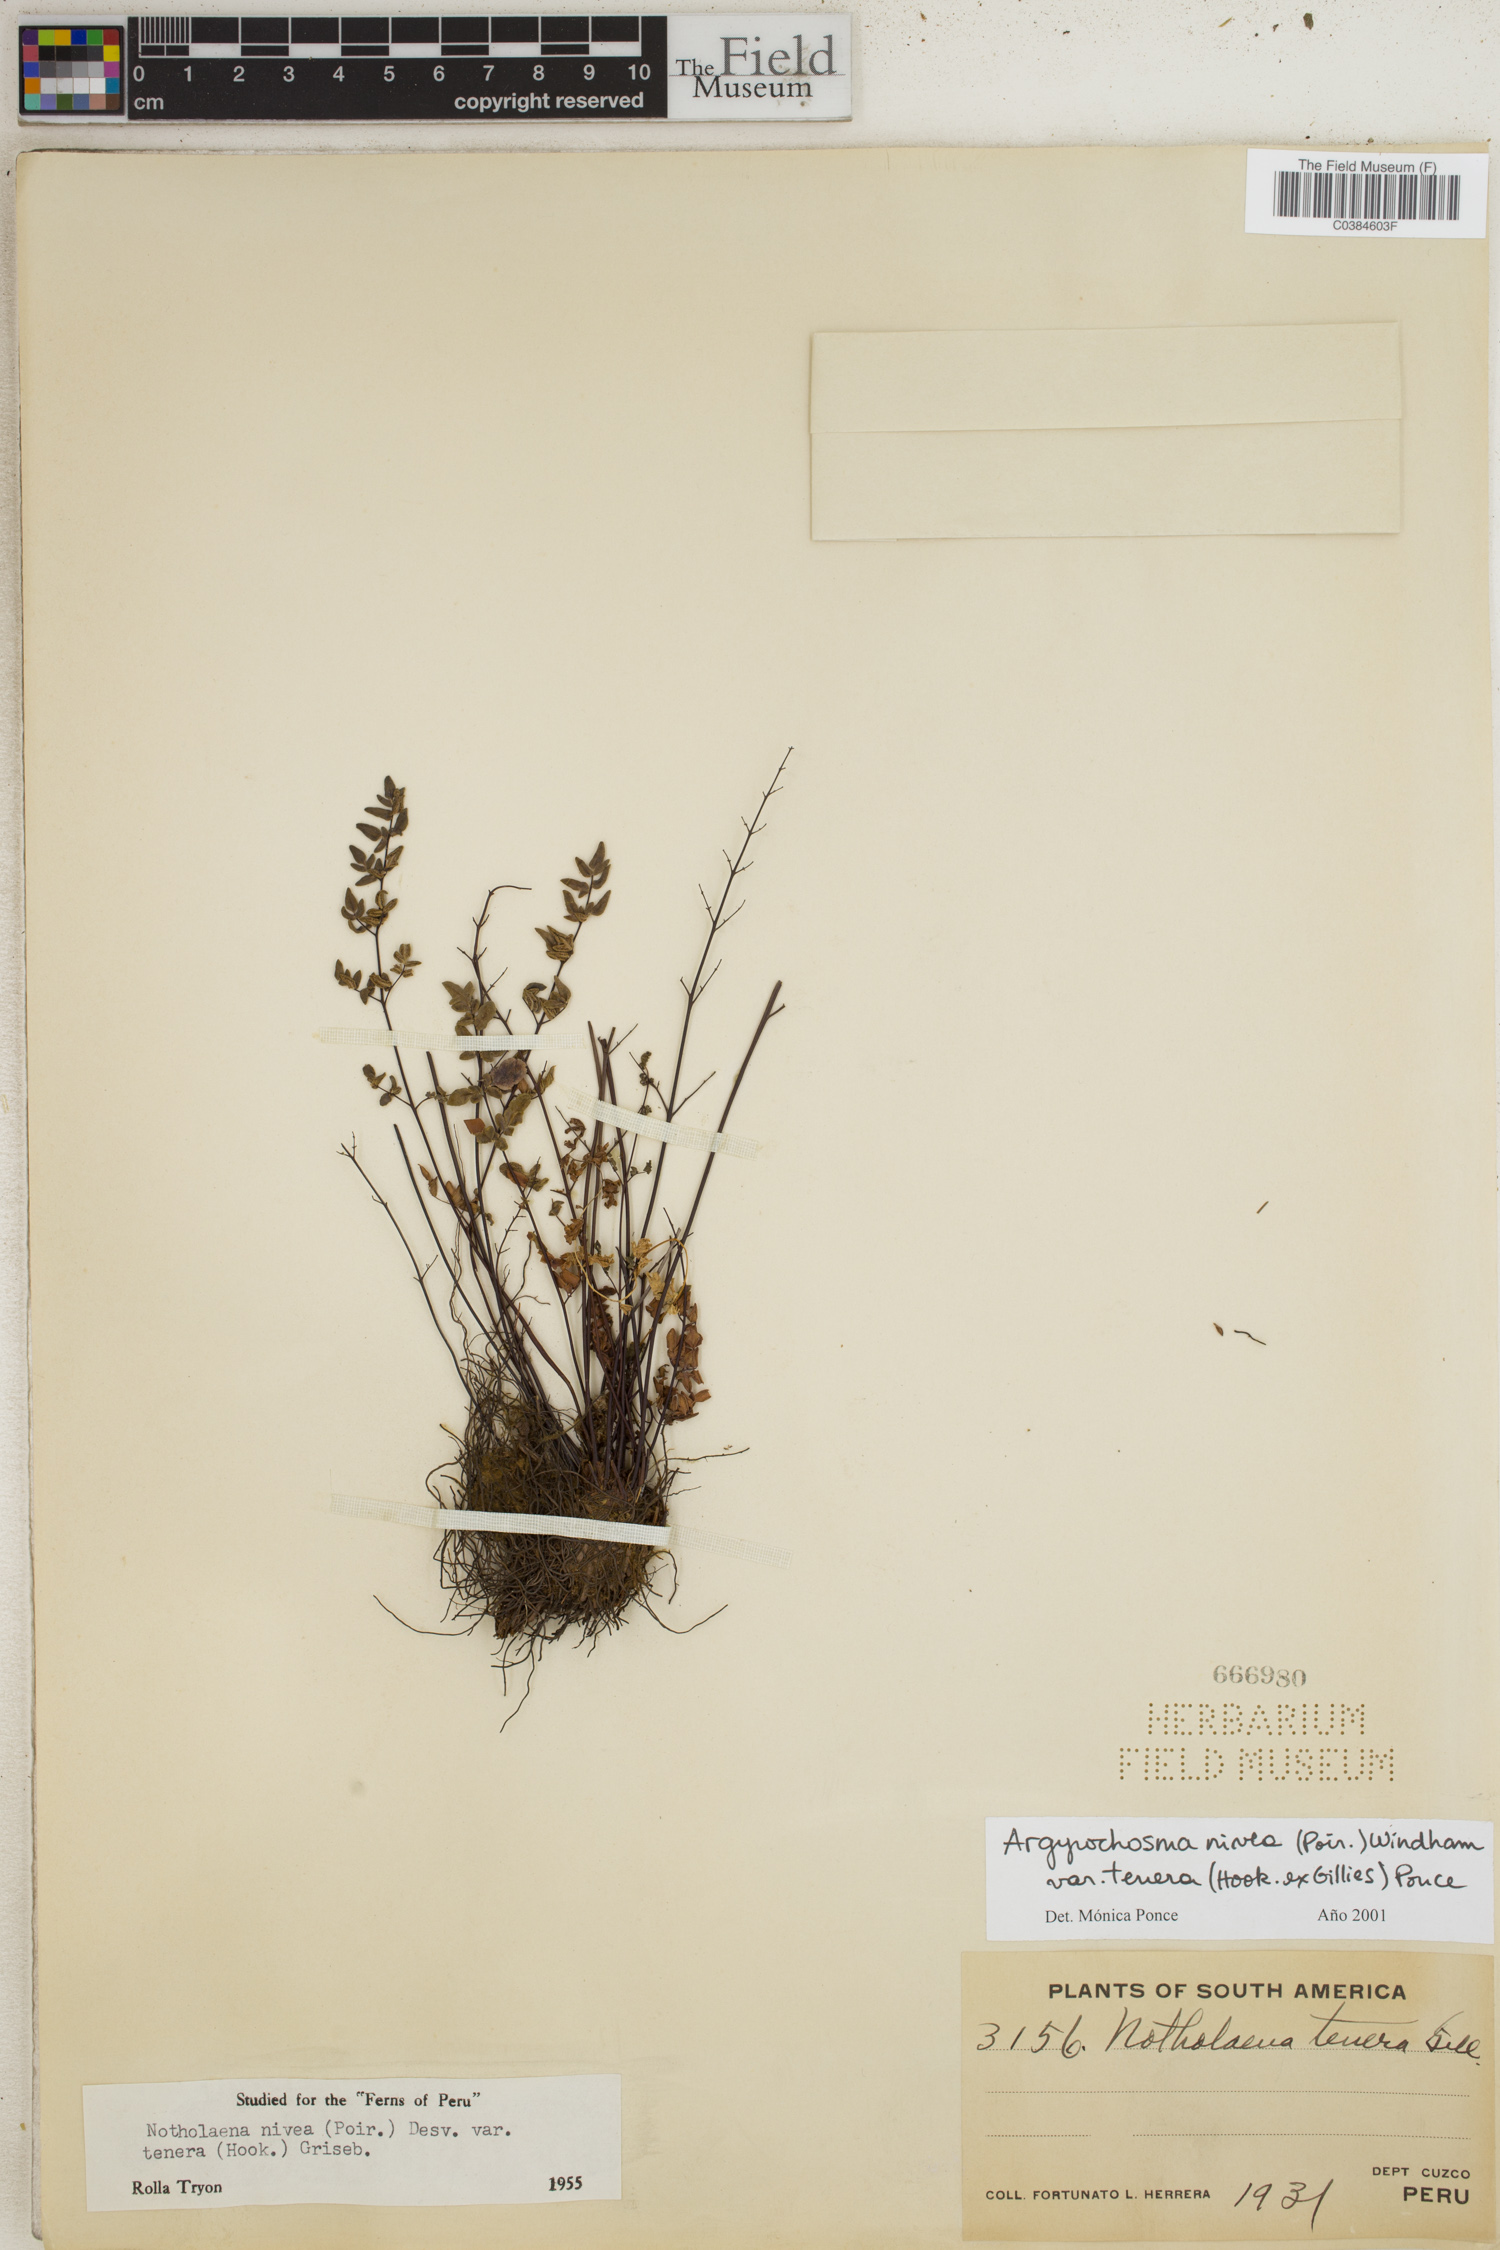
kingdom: Plantae
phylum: Tracheophyta
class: Polypodiopsida
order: Polypodiales
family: Pteridaceae
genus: Argyrochosma
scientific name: Argyrochosma nivea
